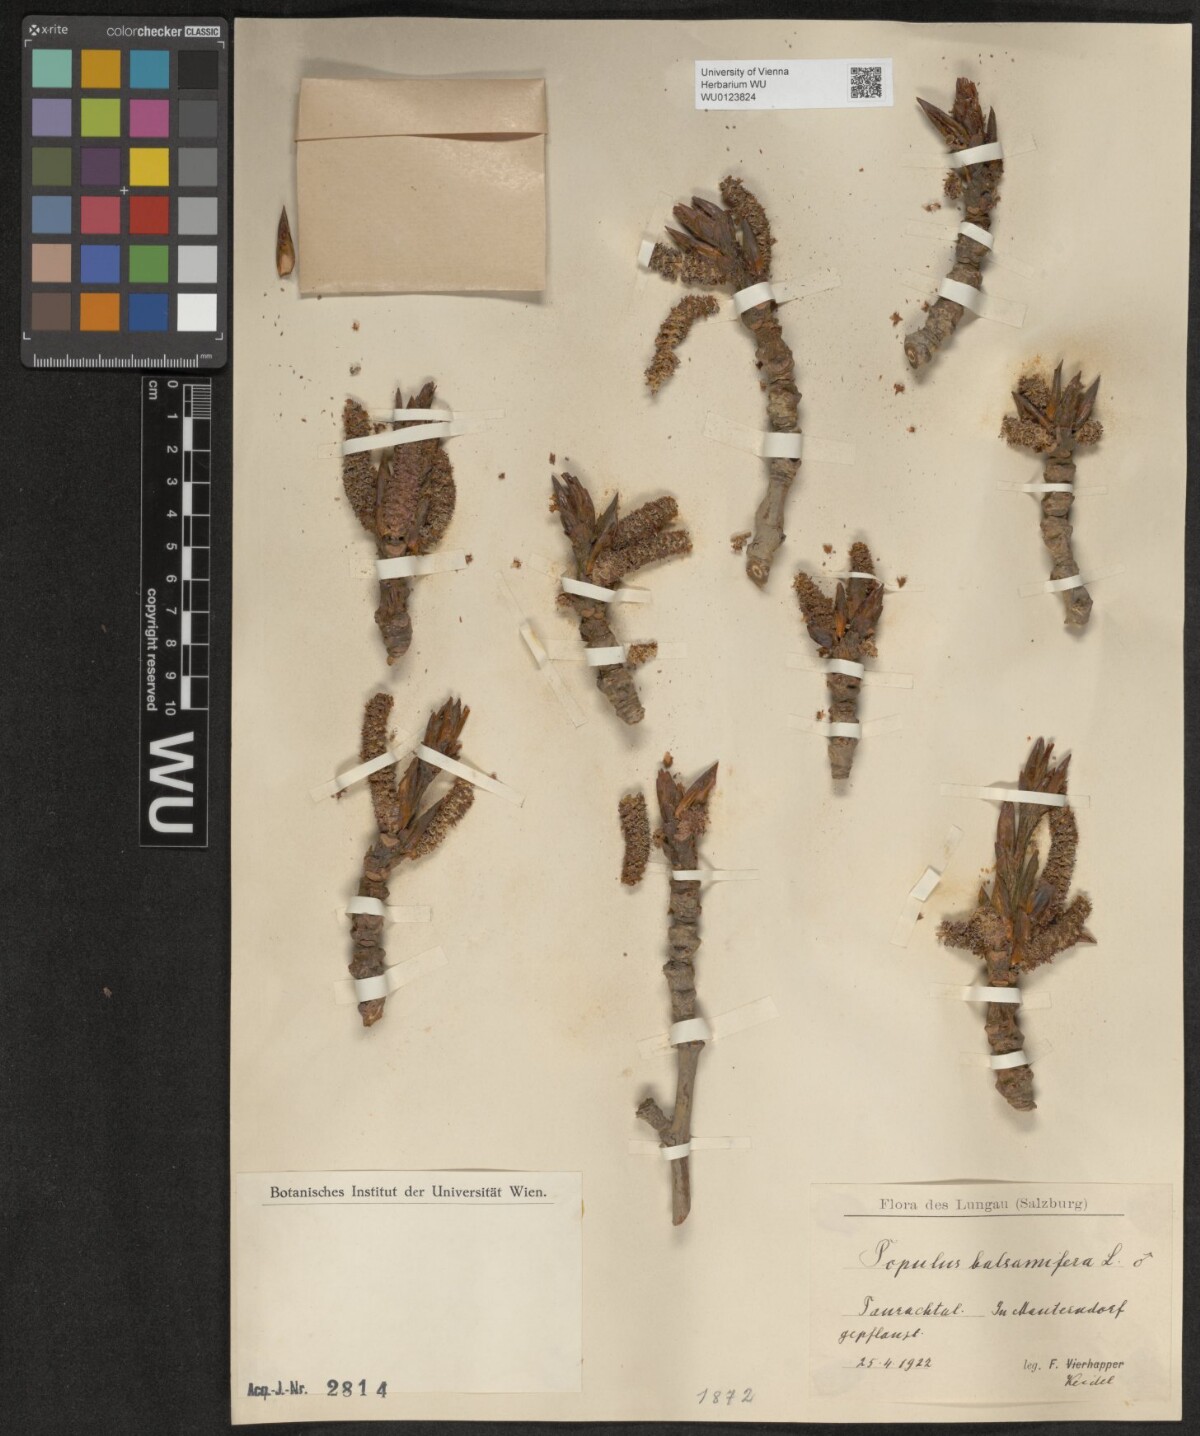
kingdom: Plantae
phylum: Tracheophyta
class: Magnoliopsida
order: Malpighiales
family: Salicaceae
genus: Populus
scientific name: Populus balsamifera
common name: Balsam poplar
